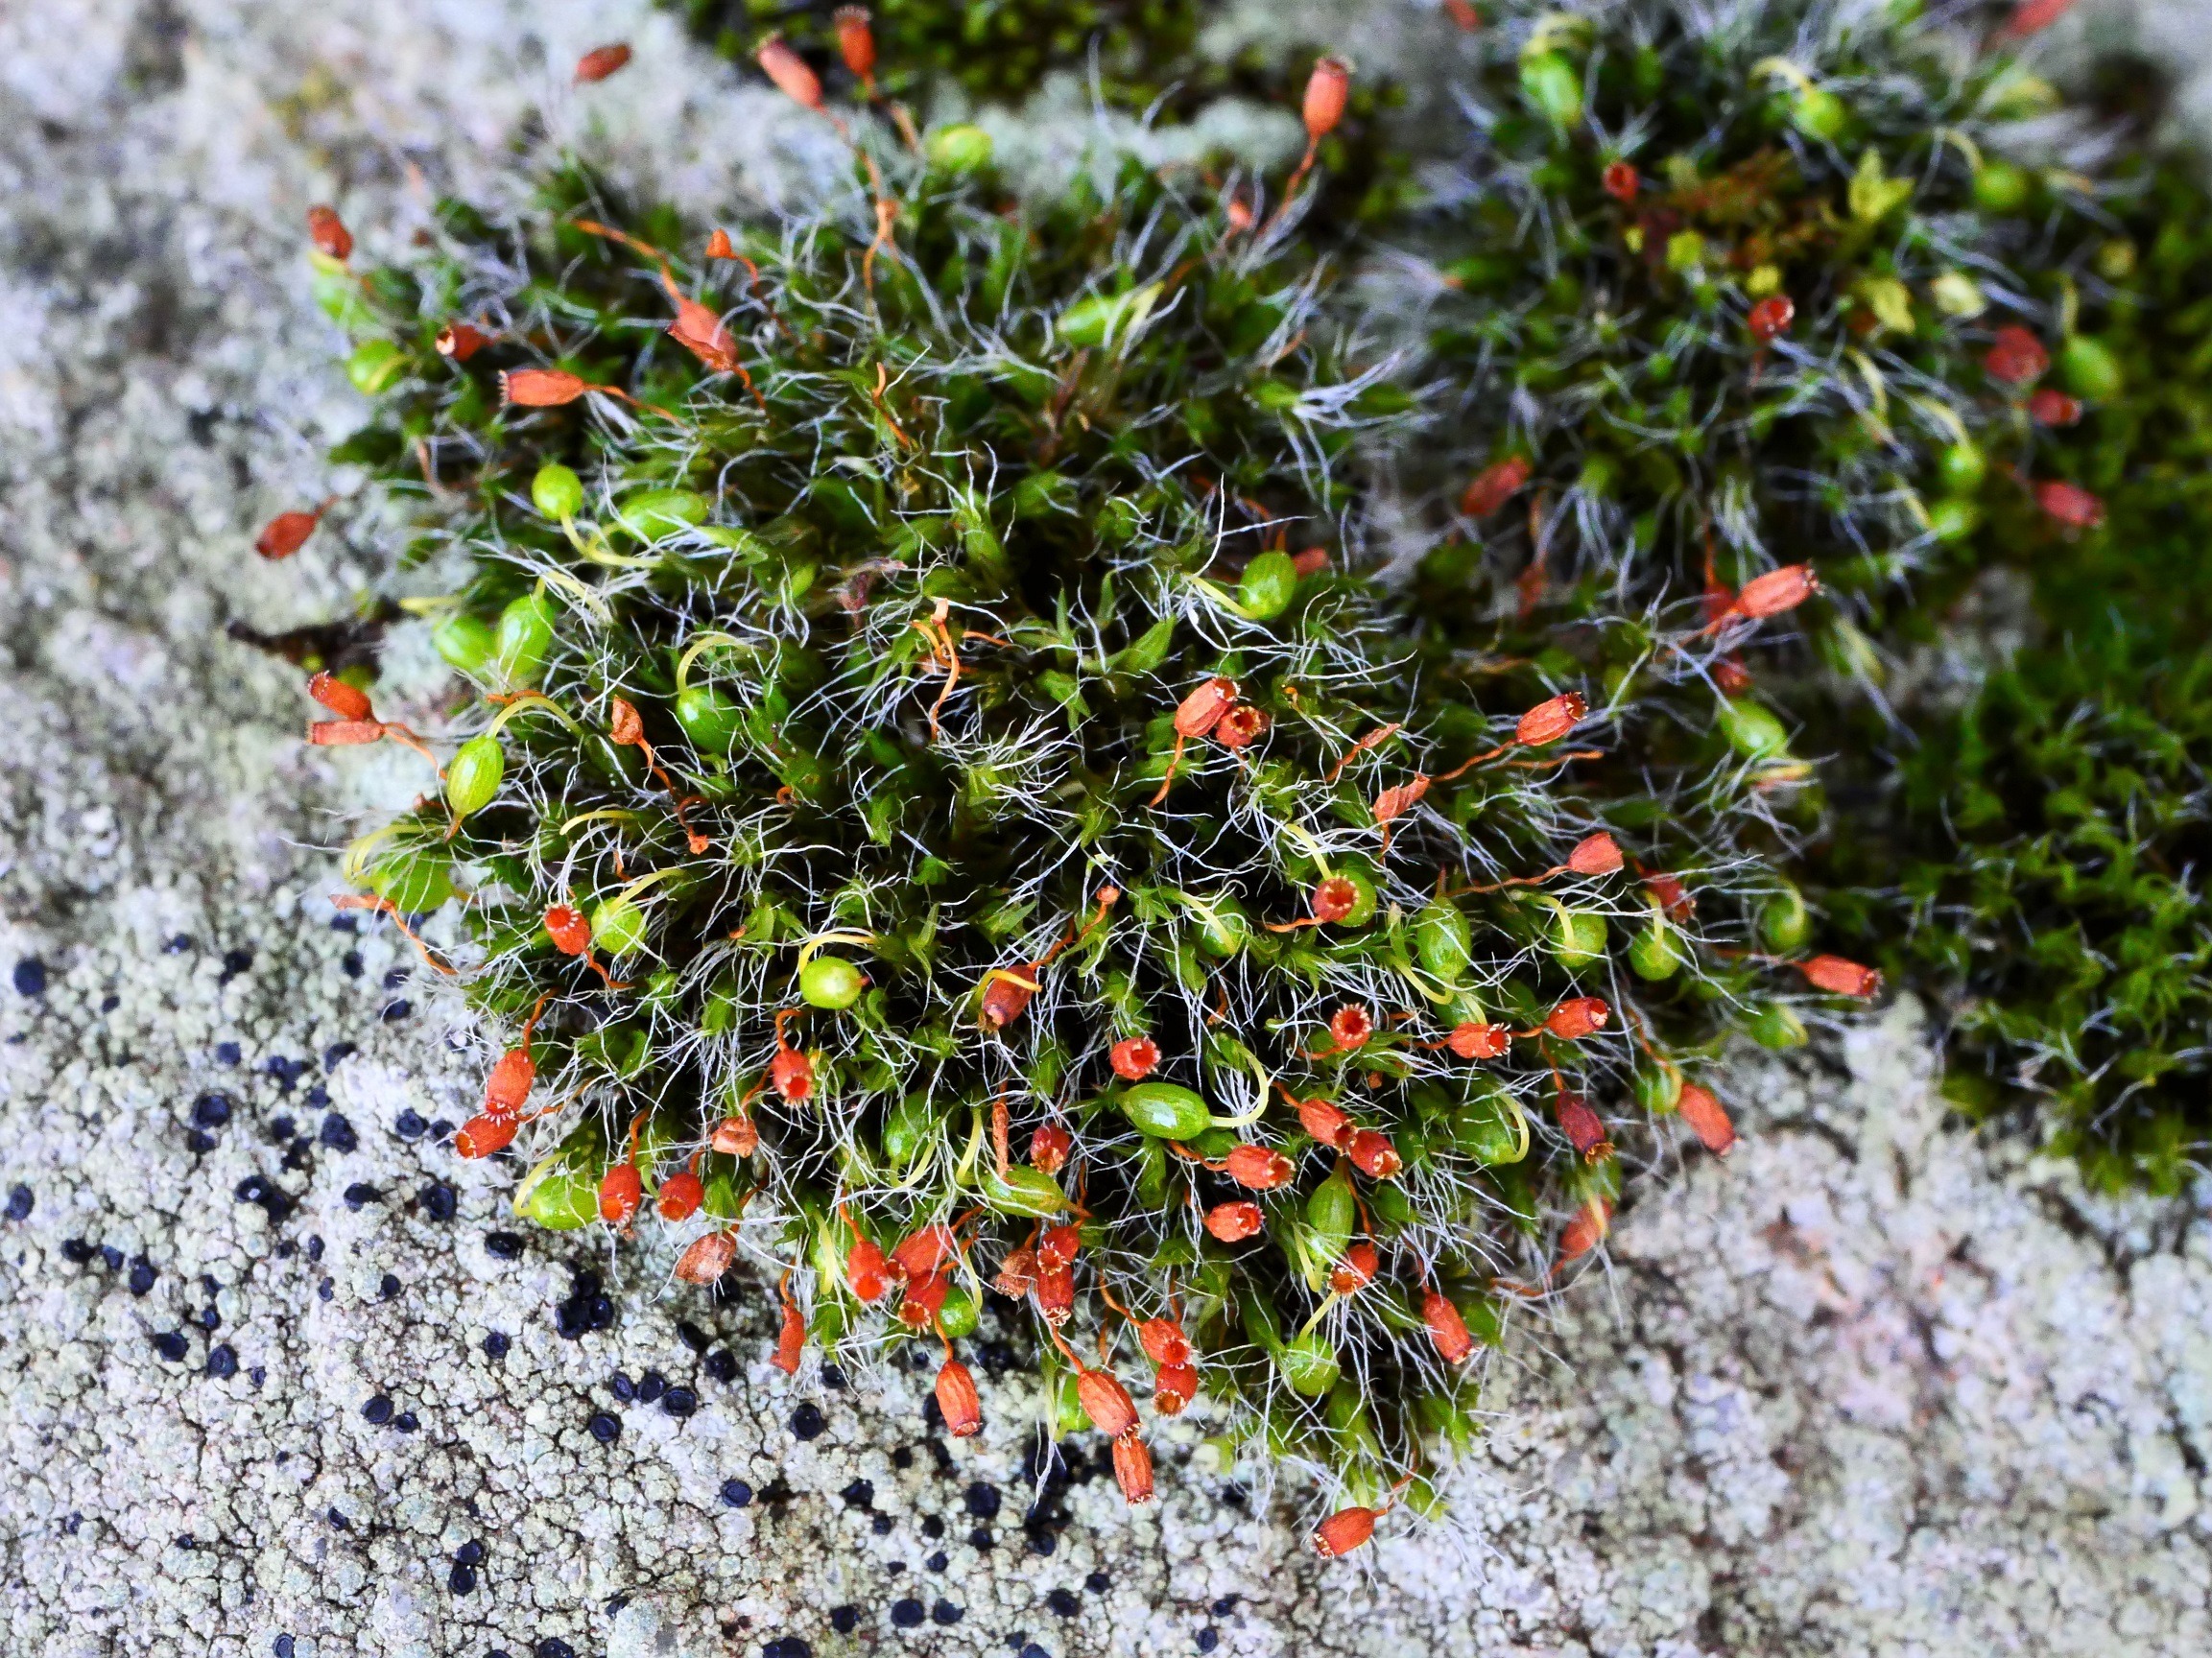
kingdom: Plantae
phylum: Bryophyta
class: Bryopsida
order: Grimmiales
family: Grimmiaceae
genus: Grimmia
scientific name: Grimmia pulvinata
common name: Pude-gråmos
